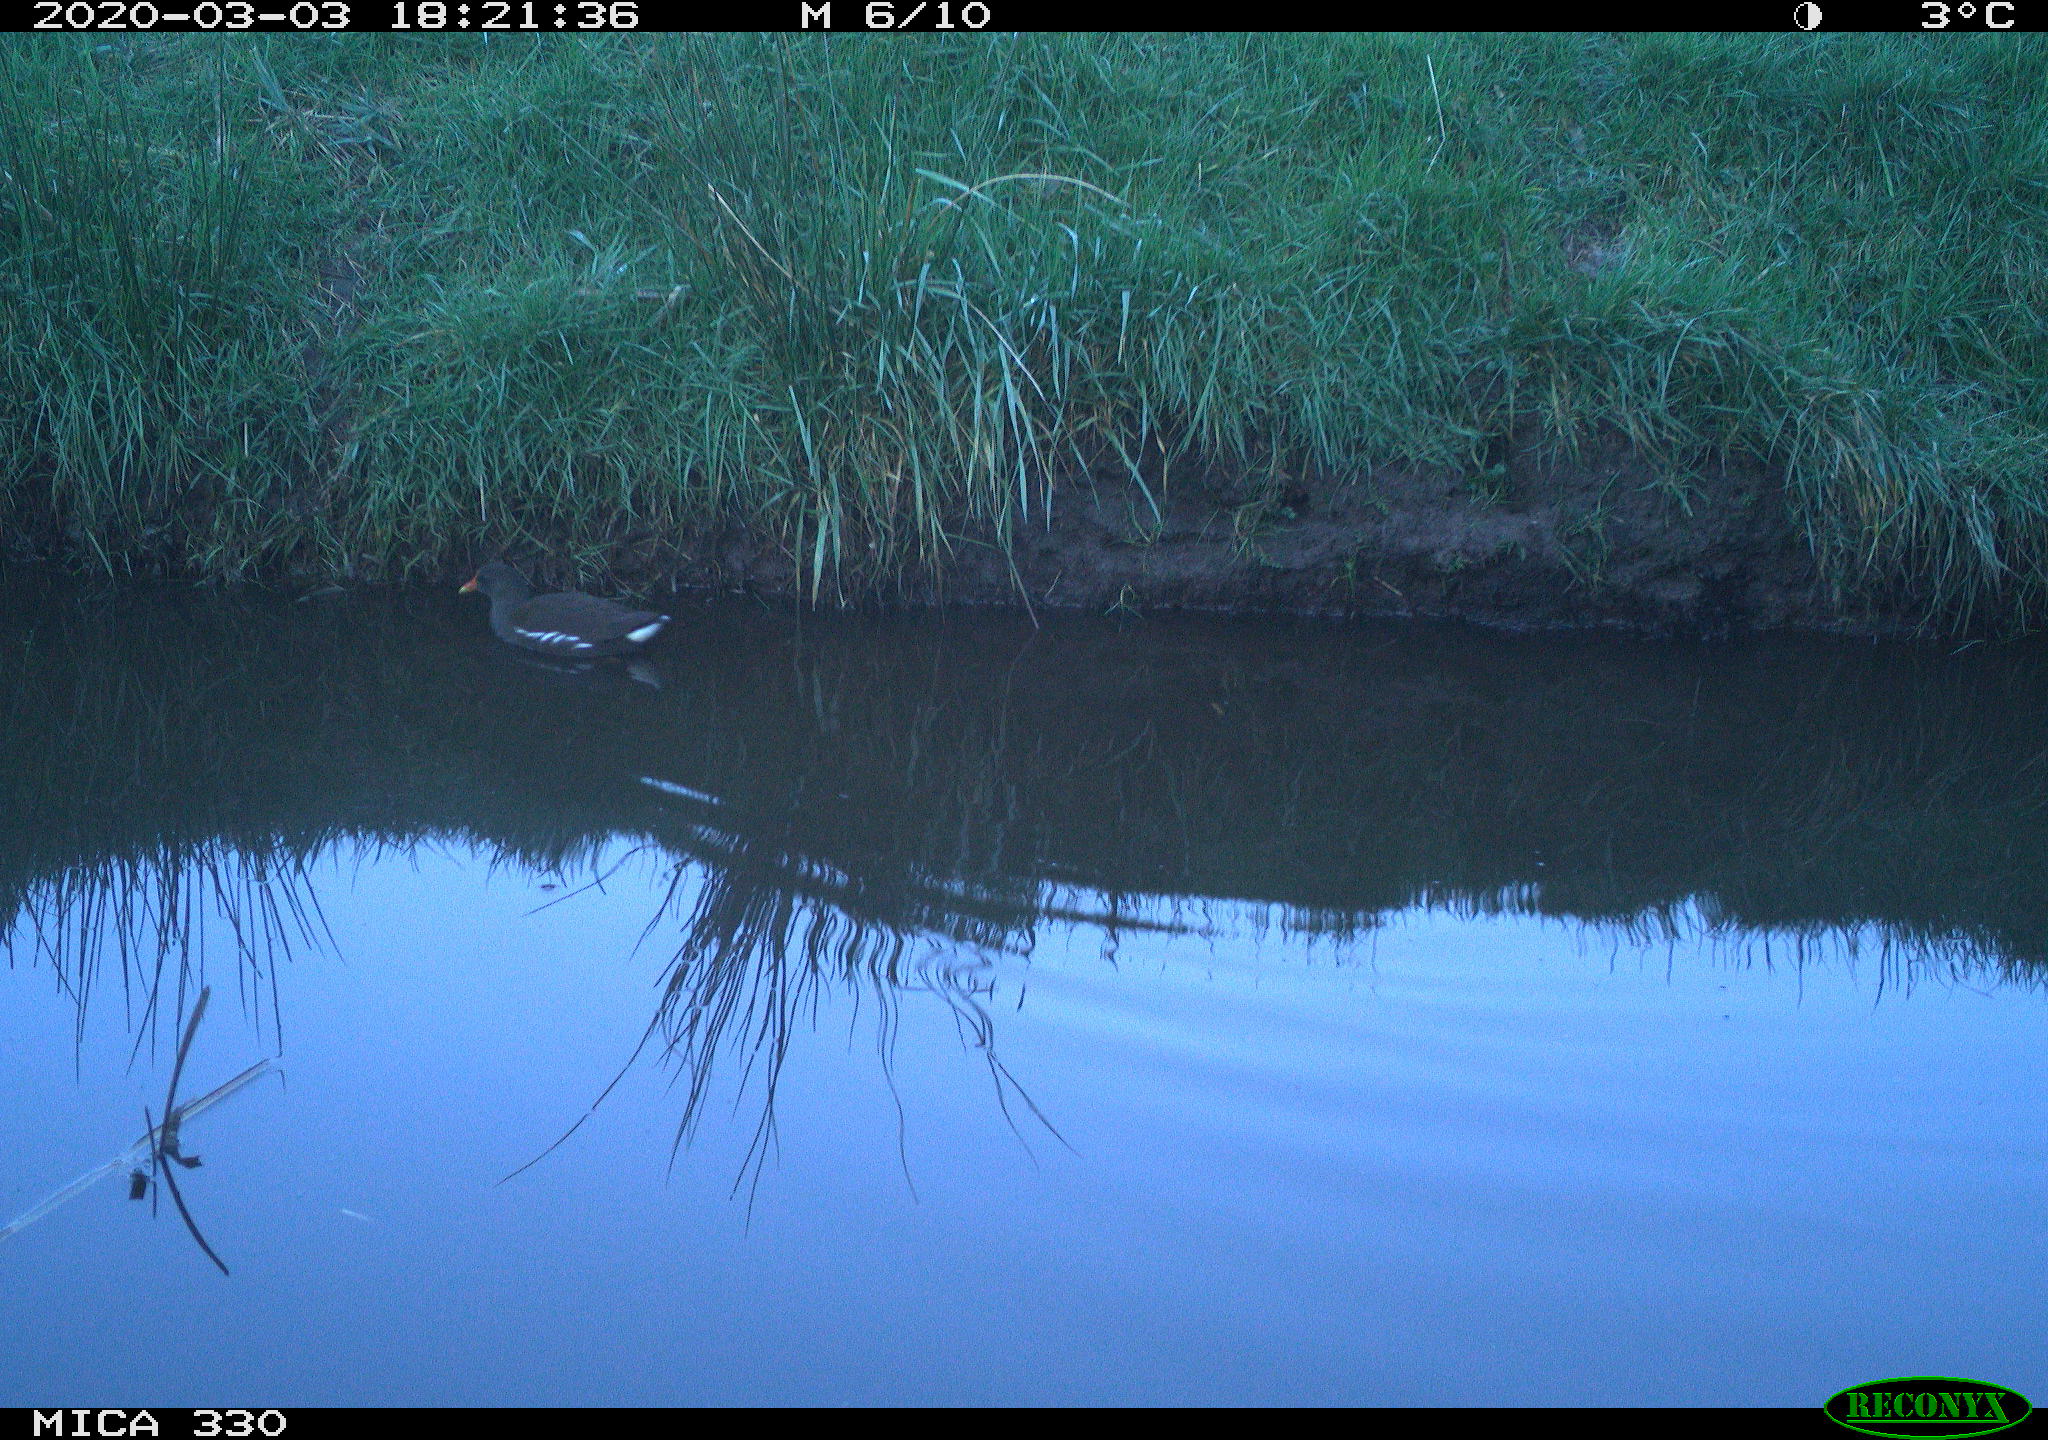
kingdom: Animalia
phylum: Chordata
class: Aves
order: Gruiformes
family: Rallidae
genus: Gallinula
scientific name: Gallinula chloropus
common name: Common moorhen
